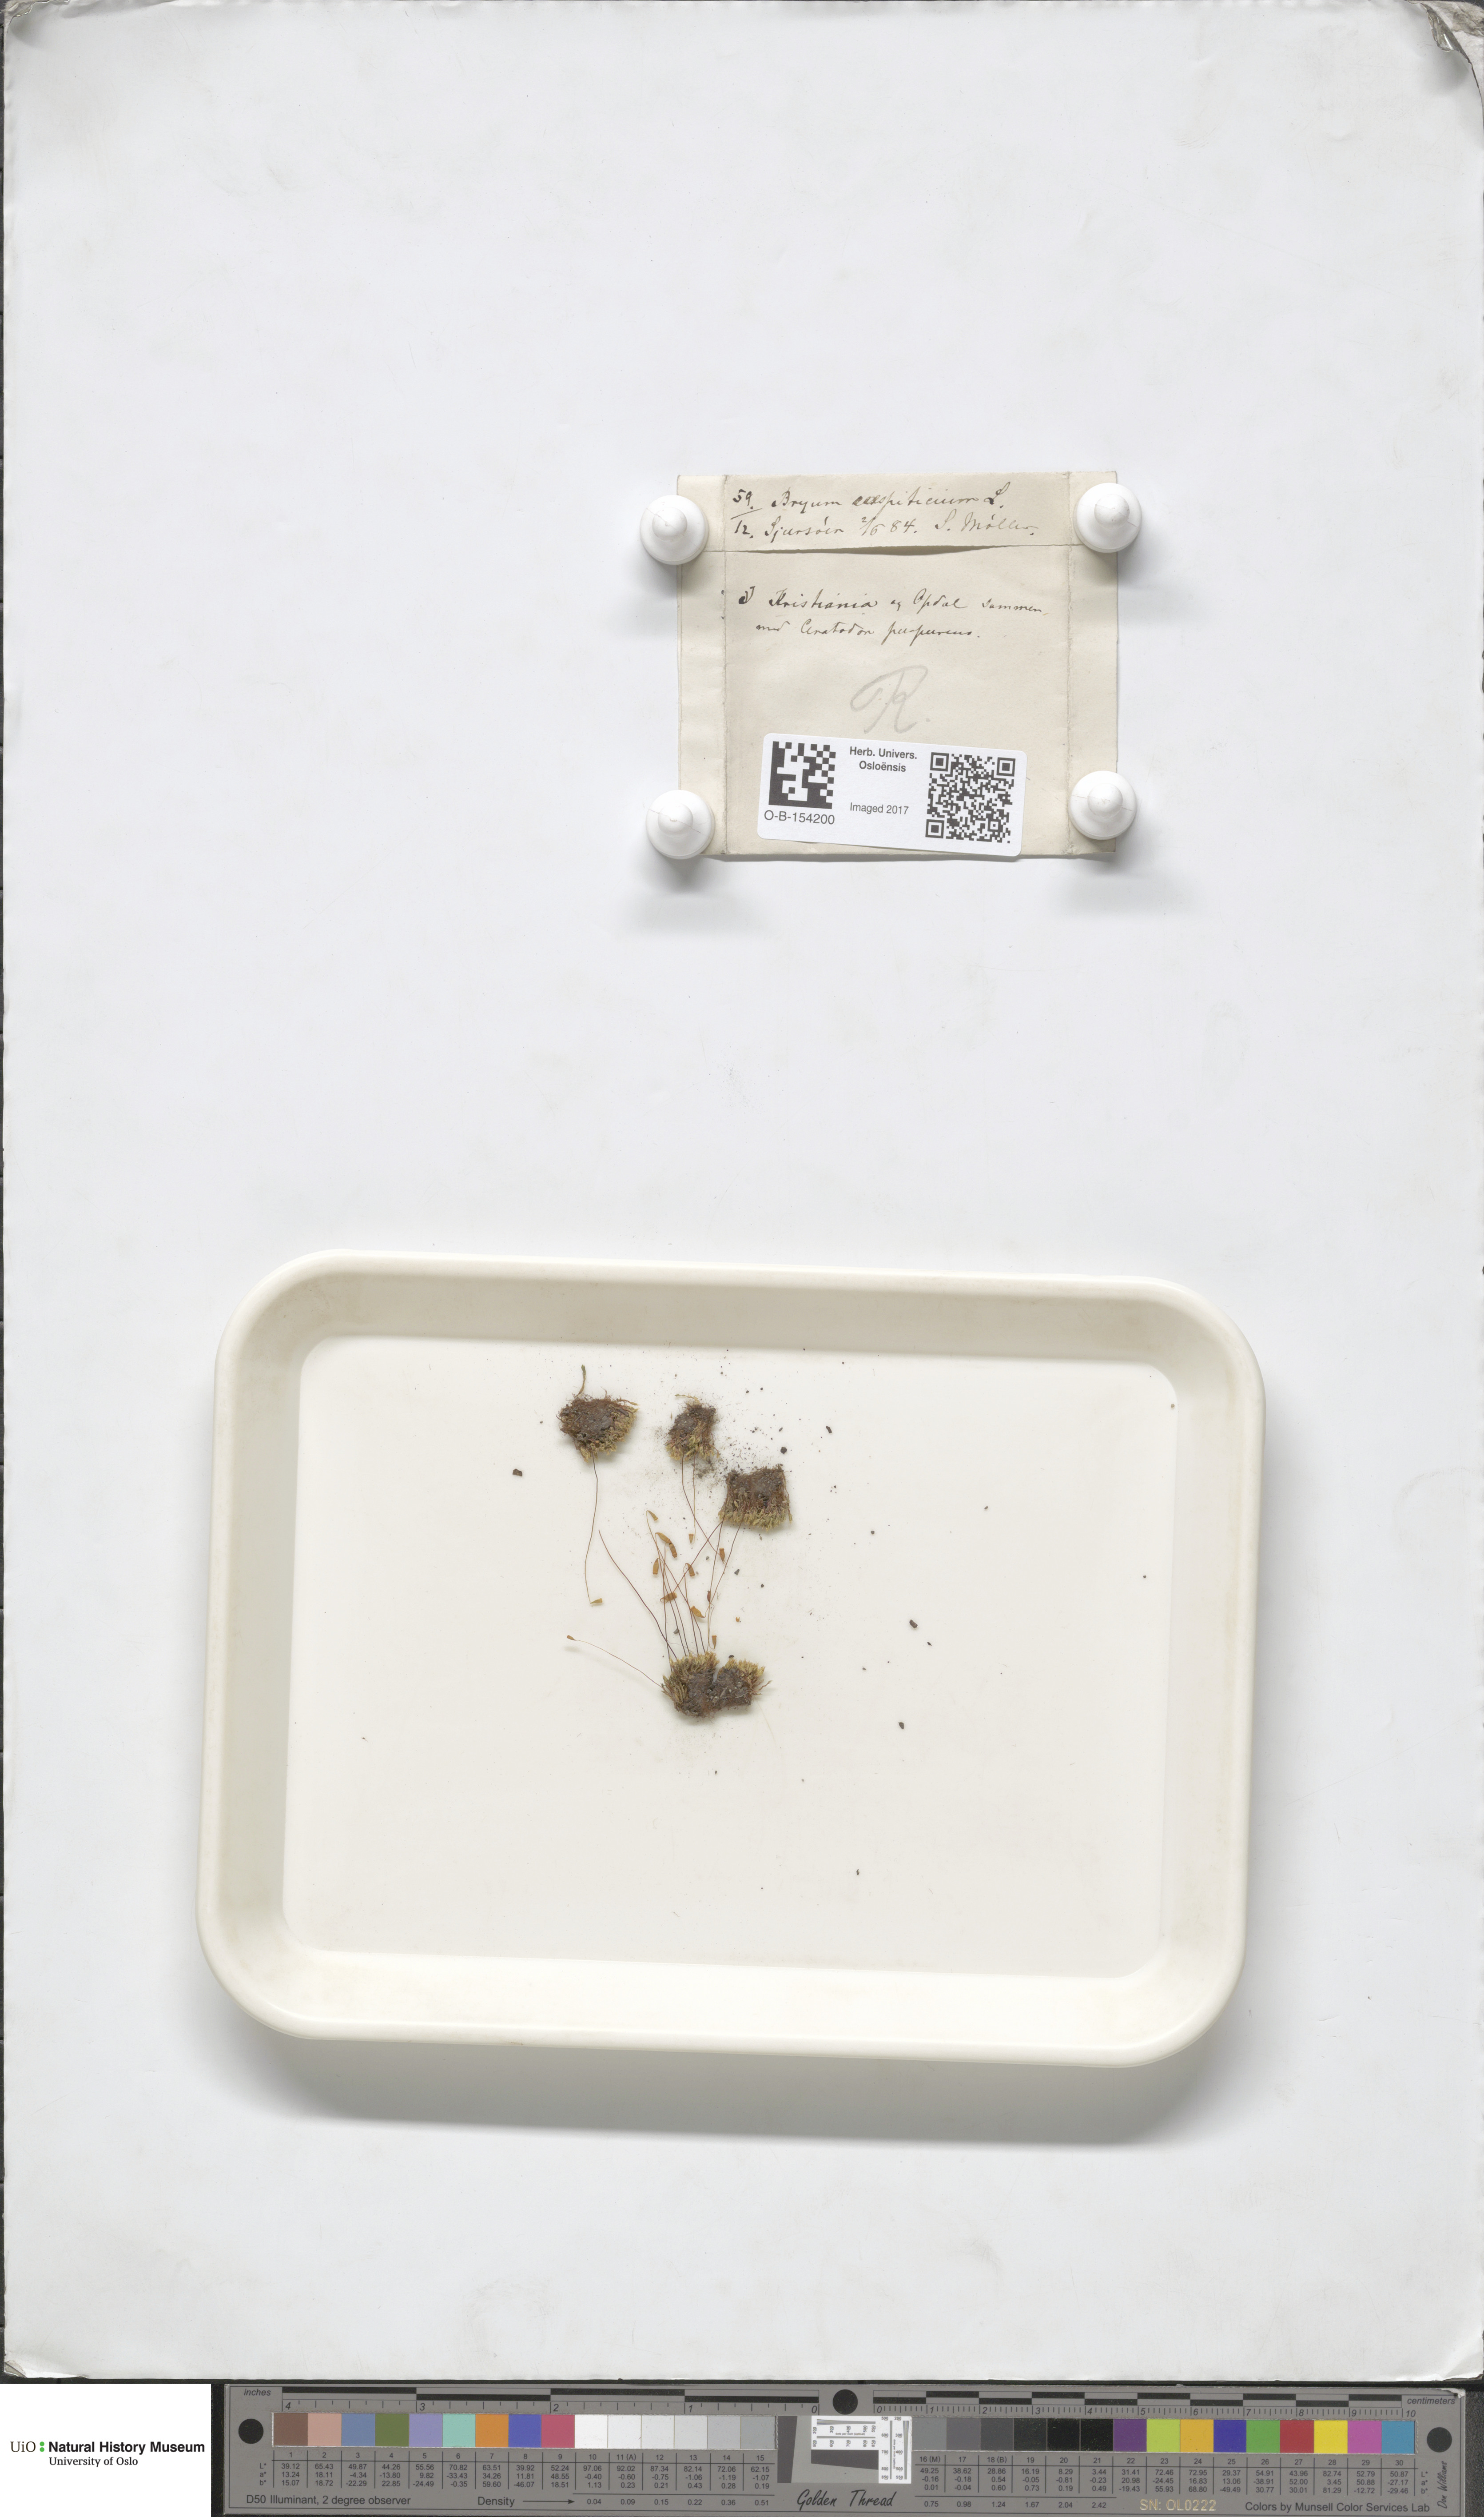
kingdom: Plantae
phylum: Bryophyta
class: Bryopsida
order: Bryales
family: Bryaceae
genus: Gemmabryum
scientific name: Gemmabryum caespiticium
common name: Handbell moss
